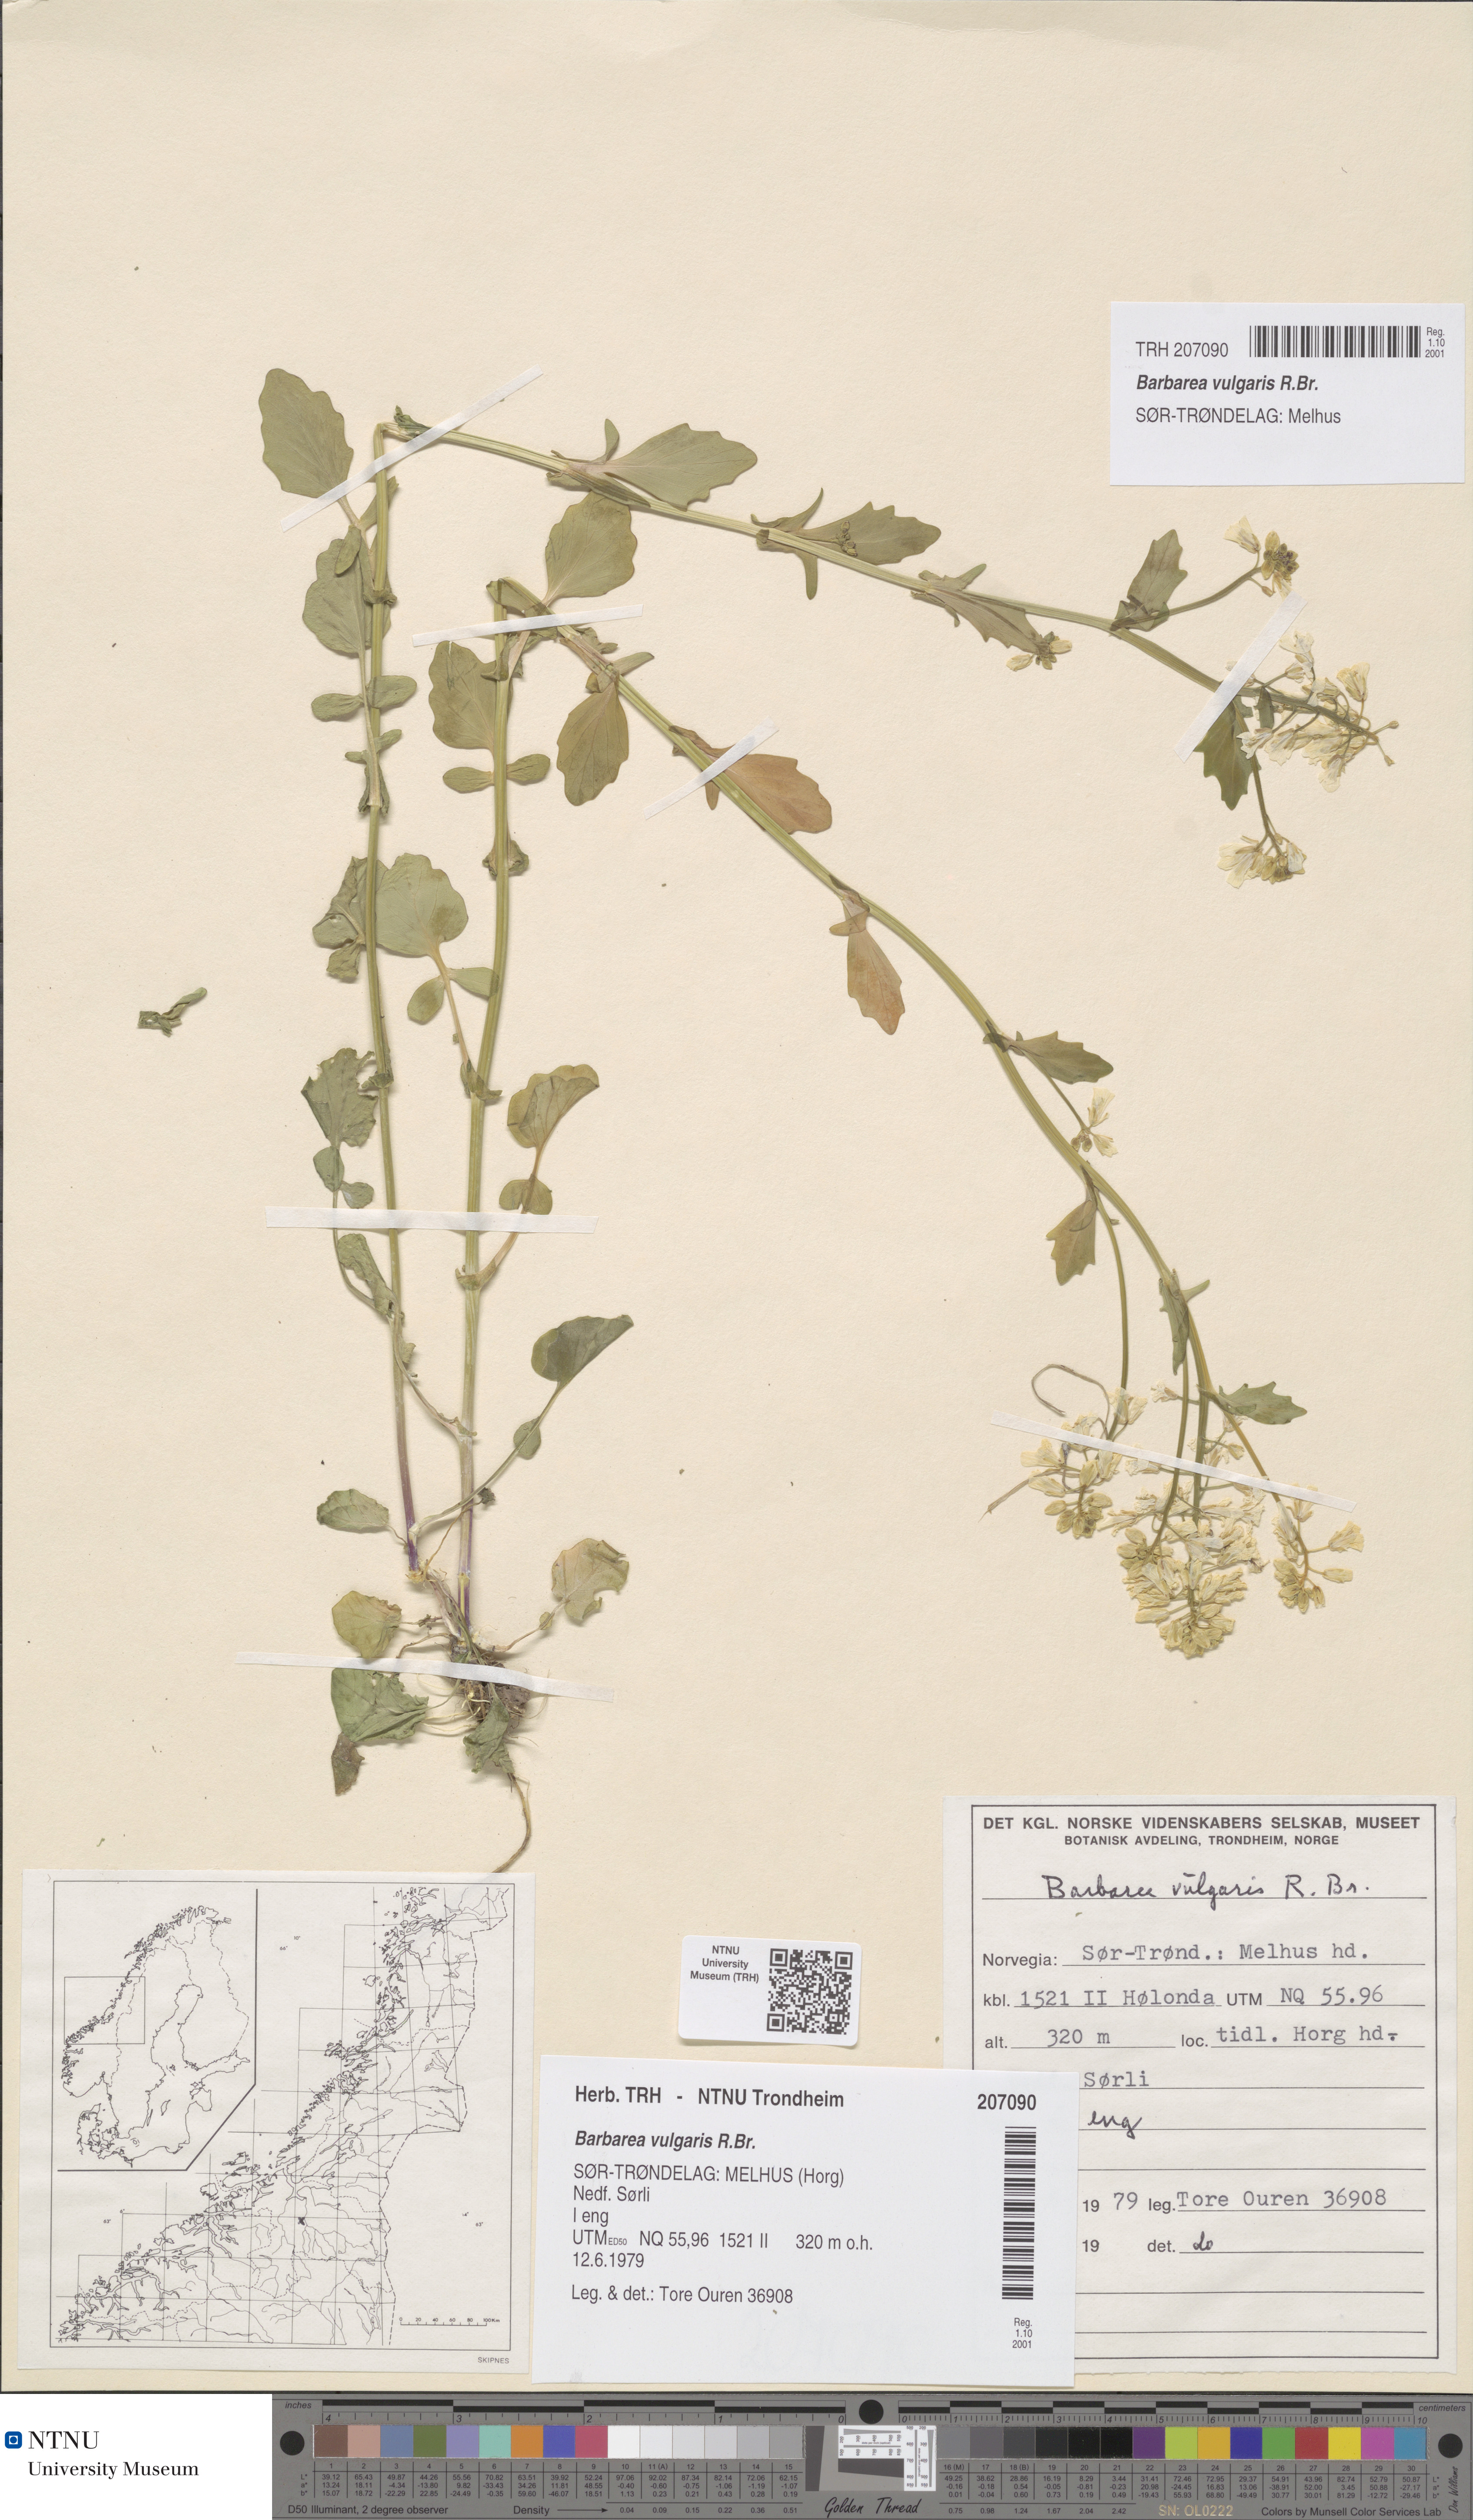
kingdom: Plantae
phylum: Tracheophyta
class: Magnoliopsida
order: Brassicales
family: Brassicaceae
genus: Barbarea
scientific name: Barbarea vulgaris
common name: Cressy-greens
